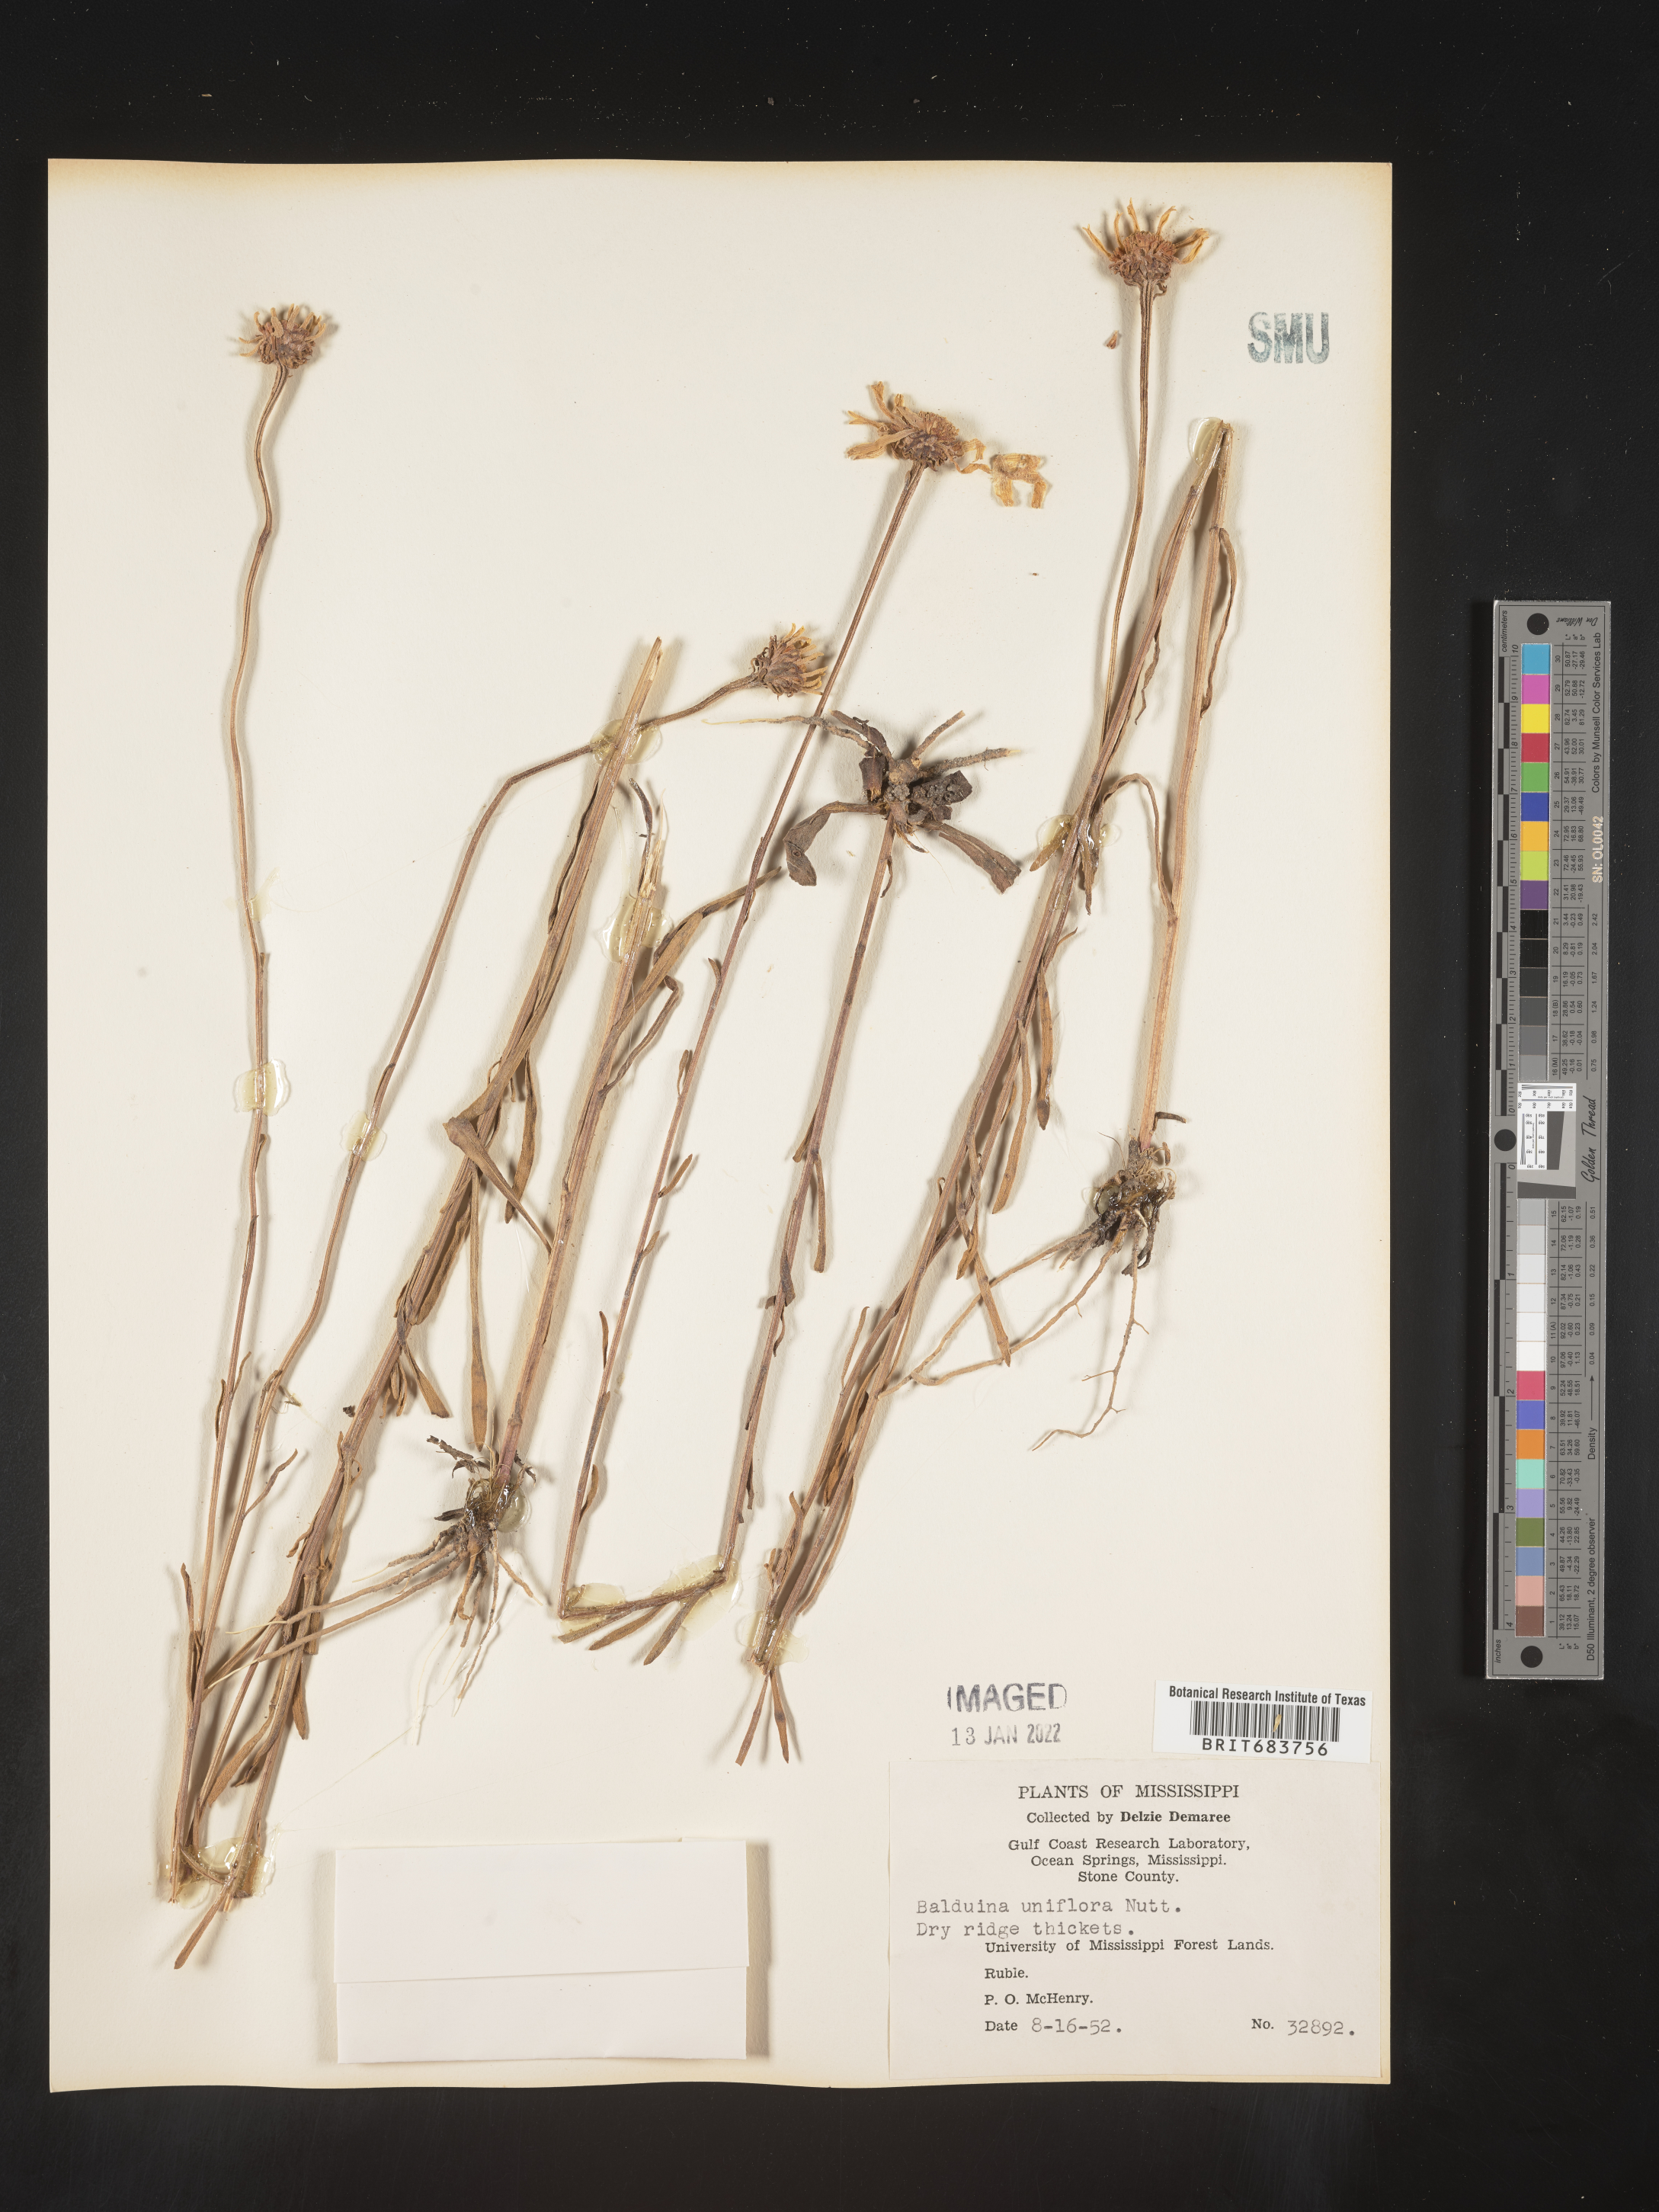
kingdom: Plantae
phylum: Tracheophyta
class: Magnoliopsida
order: Asterales
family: Asteraceae
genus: Balduina
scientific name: Balduina uniflora
